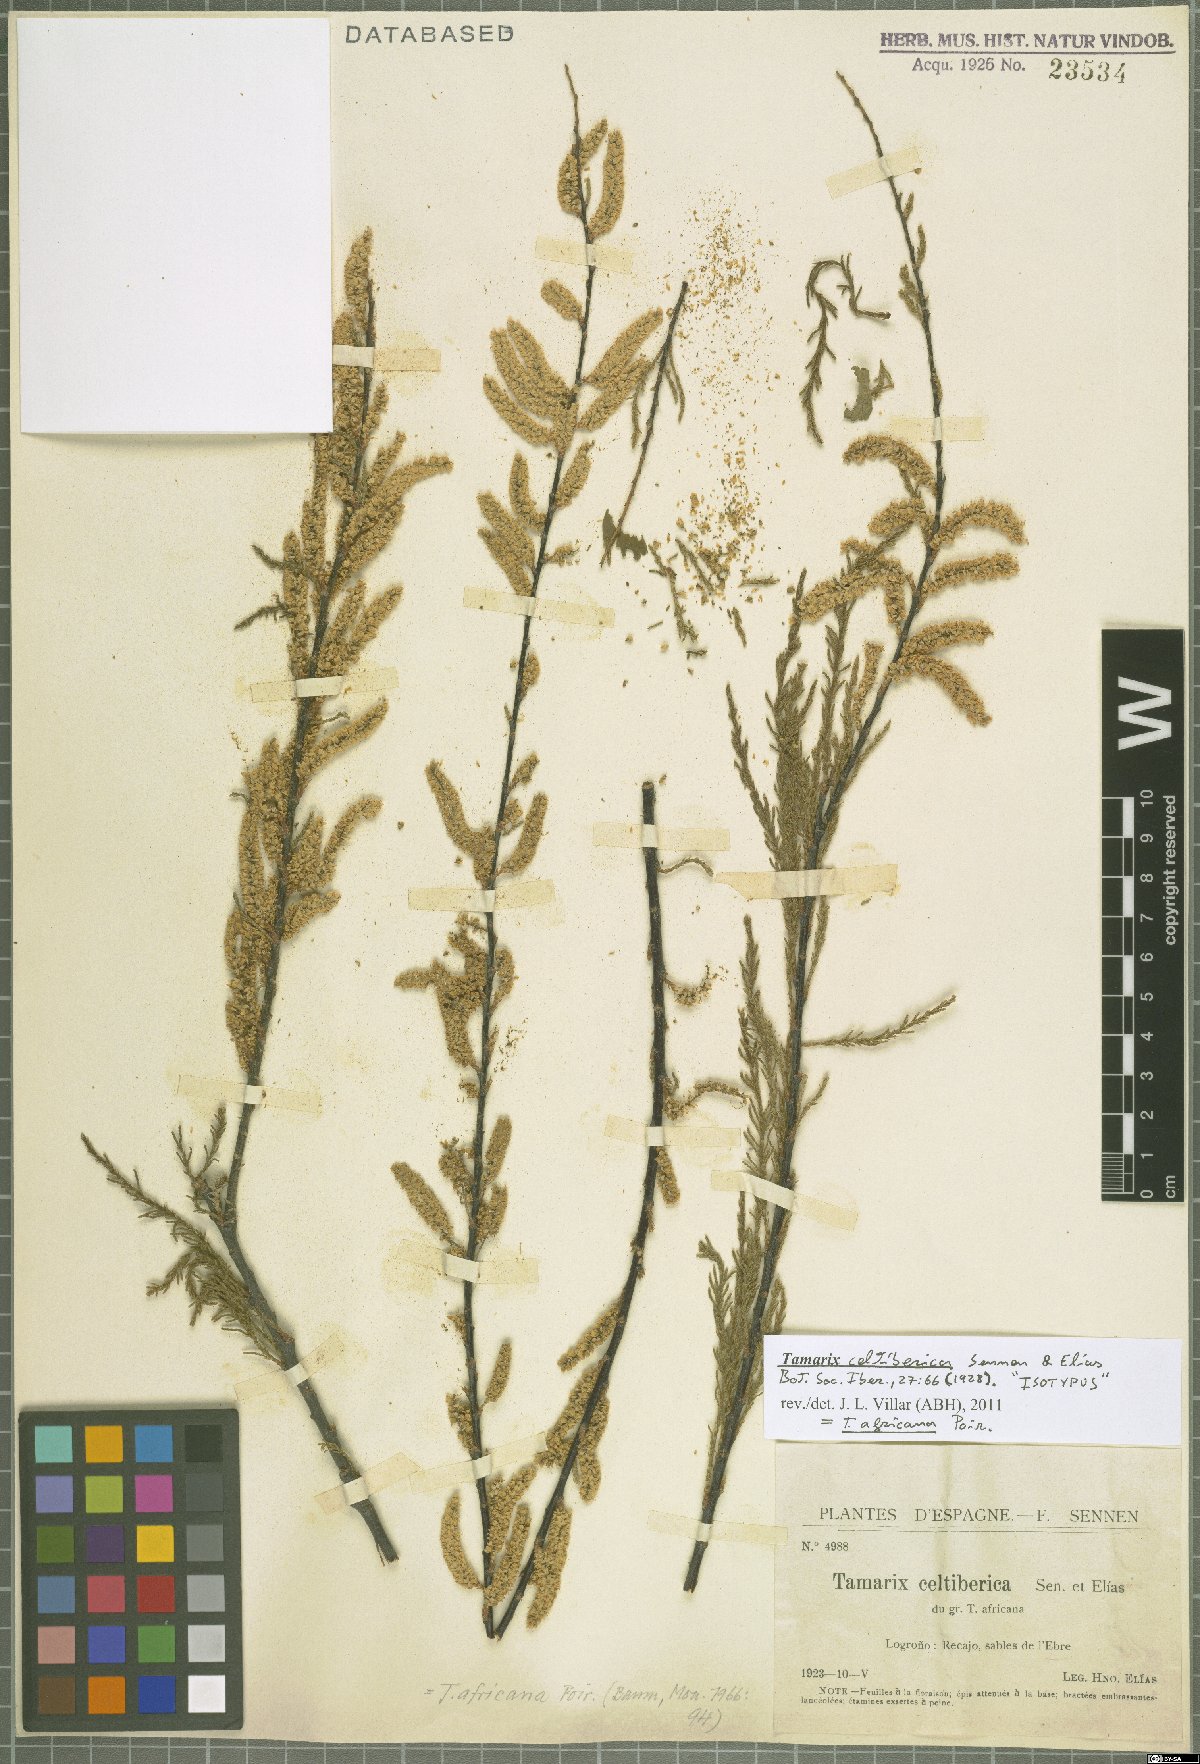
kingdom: Plantae
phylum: Tracheophyta
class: Magnoliopsida
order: Caryophyllales
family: Tamaricaceae
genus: Tamarix
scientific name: Tamarix africana
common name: African tamarisk
